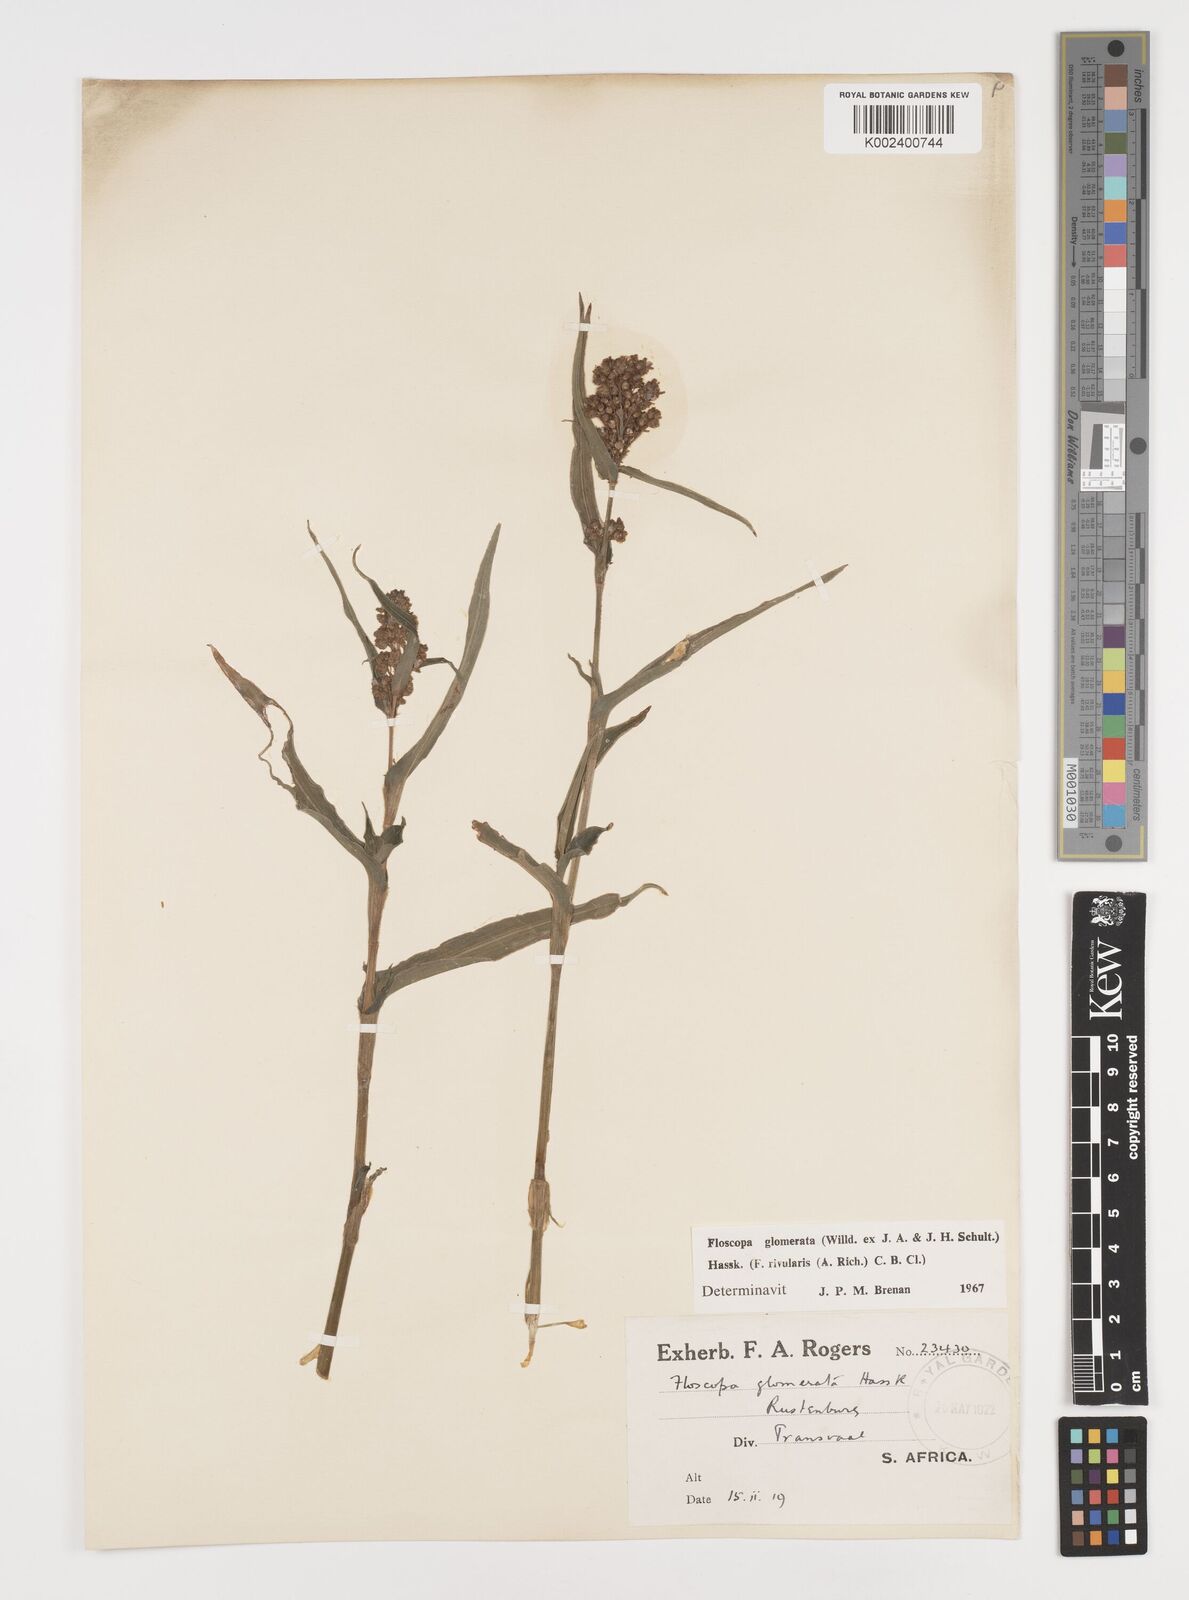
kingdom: Plantae
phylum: Tracheophyta
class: Liliopsida
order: Commelinales
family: Commelinaceae
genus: Floscopa
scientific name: Floscopa glomerata
